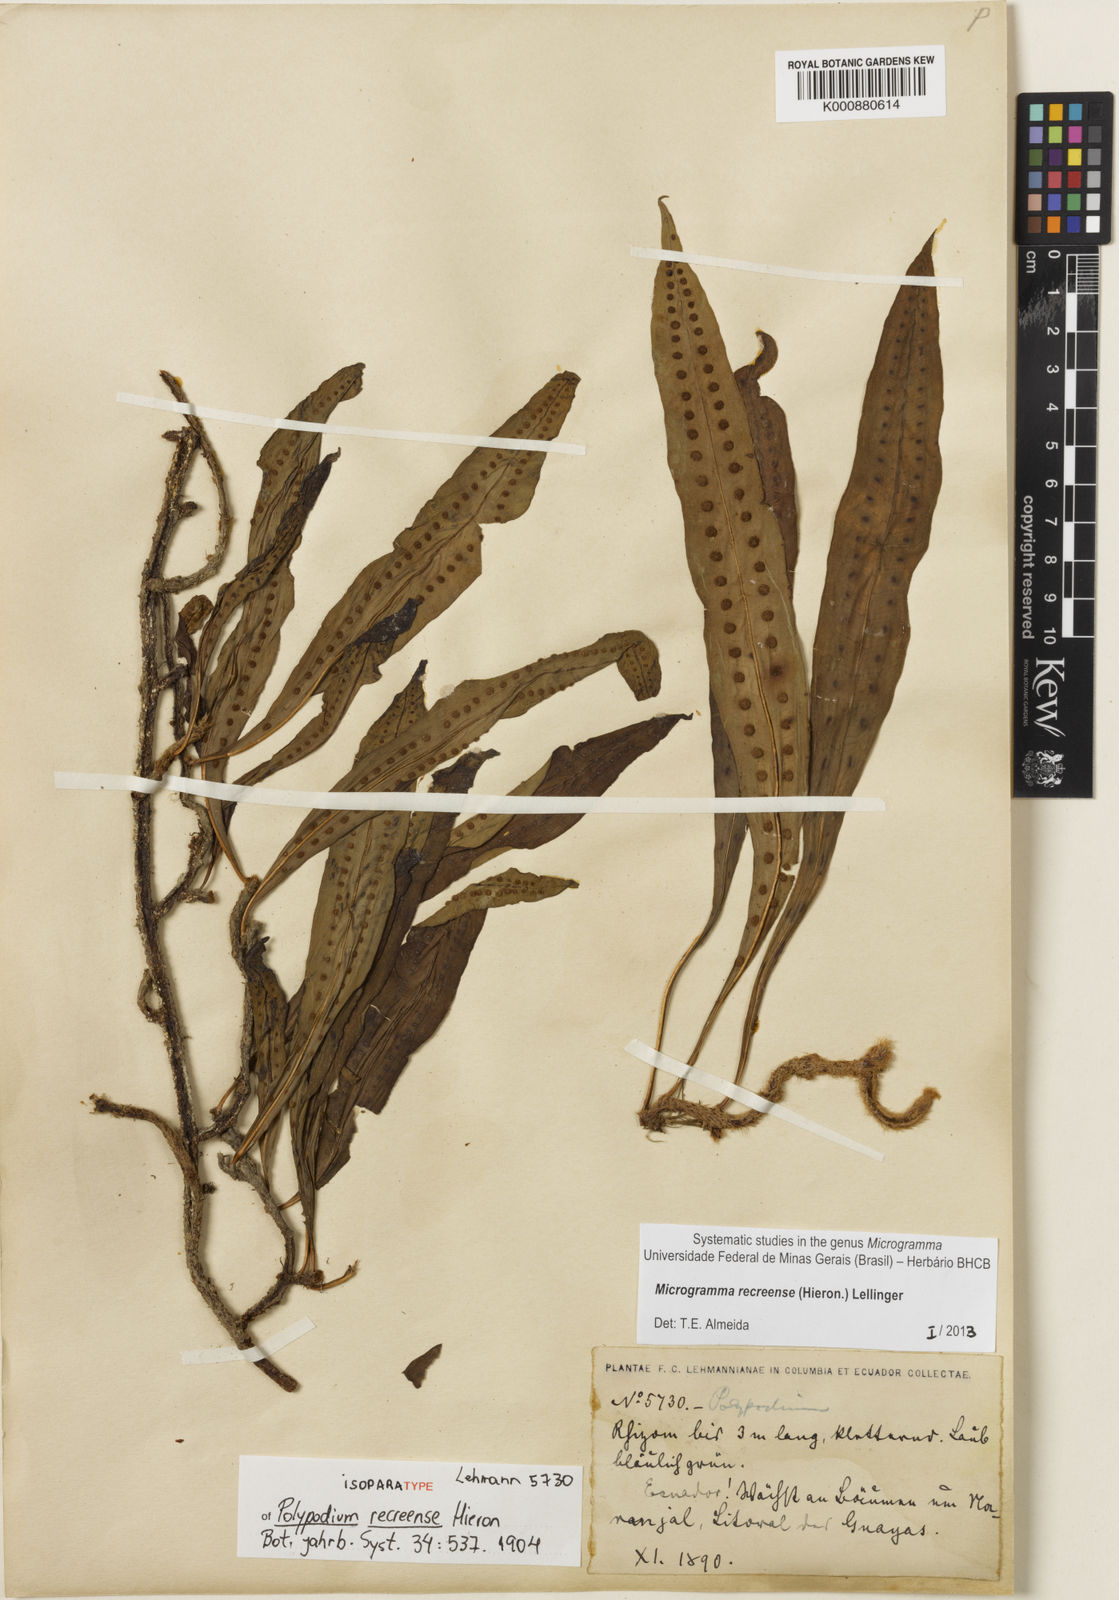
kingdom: Plantae
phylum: Tracheophyta
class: Polypodiopsida
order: Polypodiales
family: Polypodiaceae
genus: Microgramma
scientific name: Microgramma recreense
